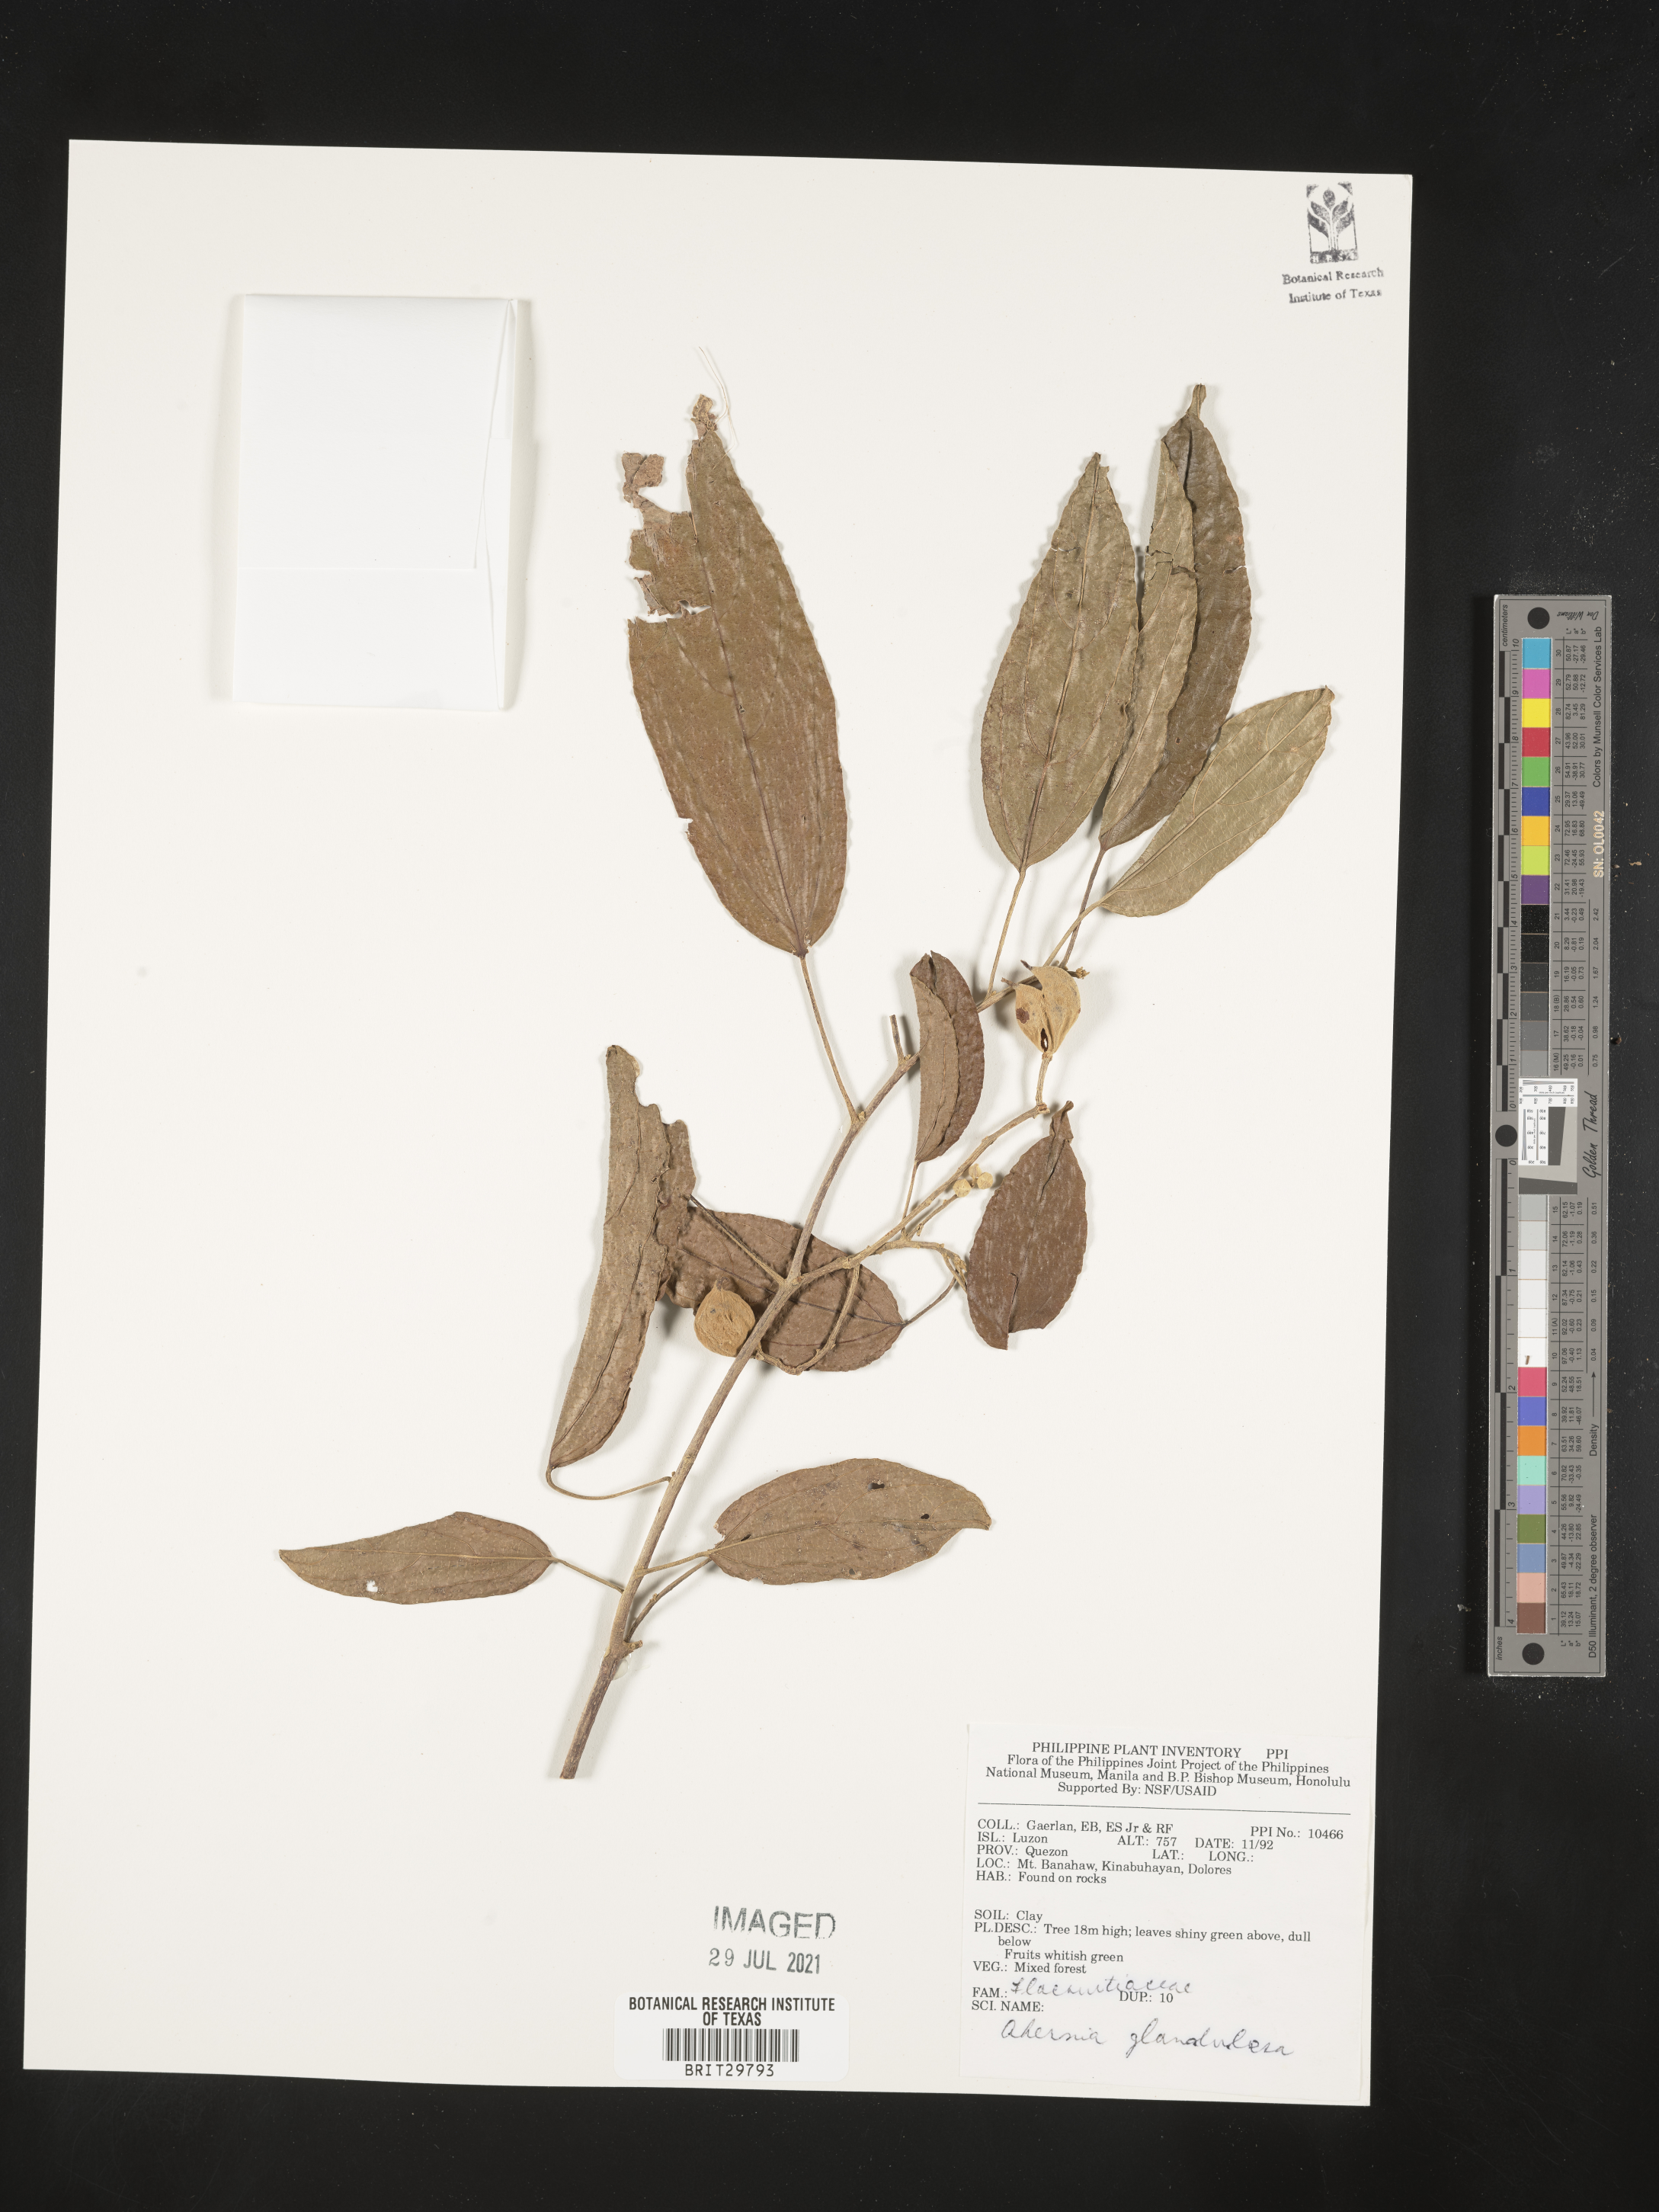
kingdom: Plantae
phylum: Tracheophyta
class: Magnoliopsida
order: Malpighiales
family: Achariaceae
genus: Ahernia
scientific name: Ahernia glandulosa
